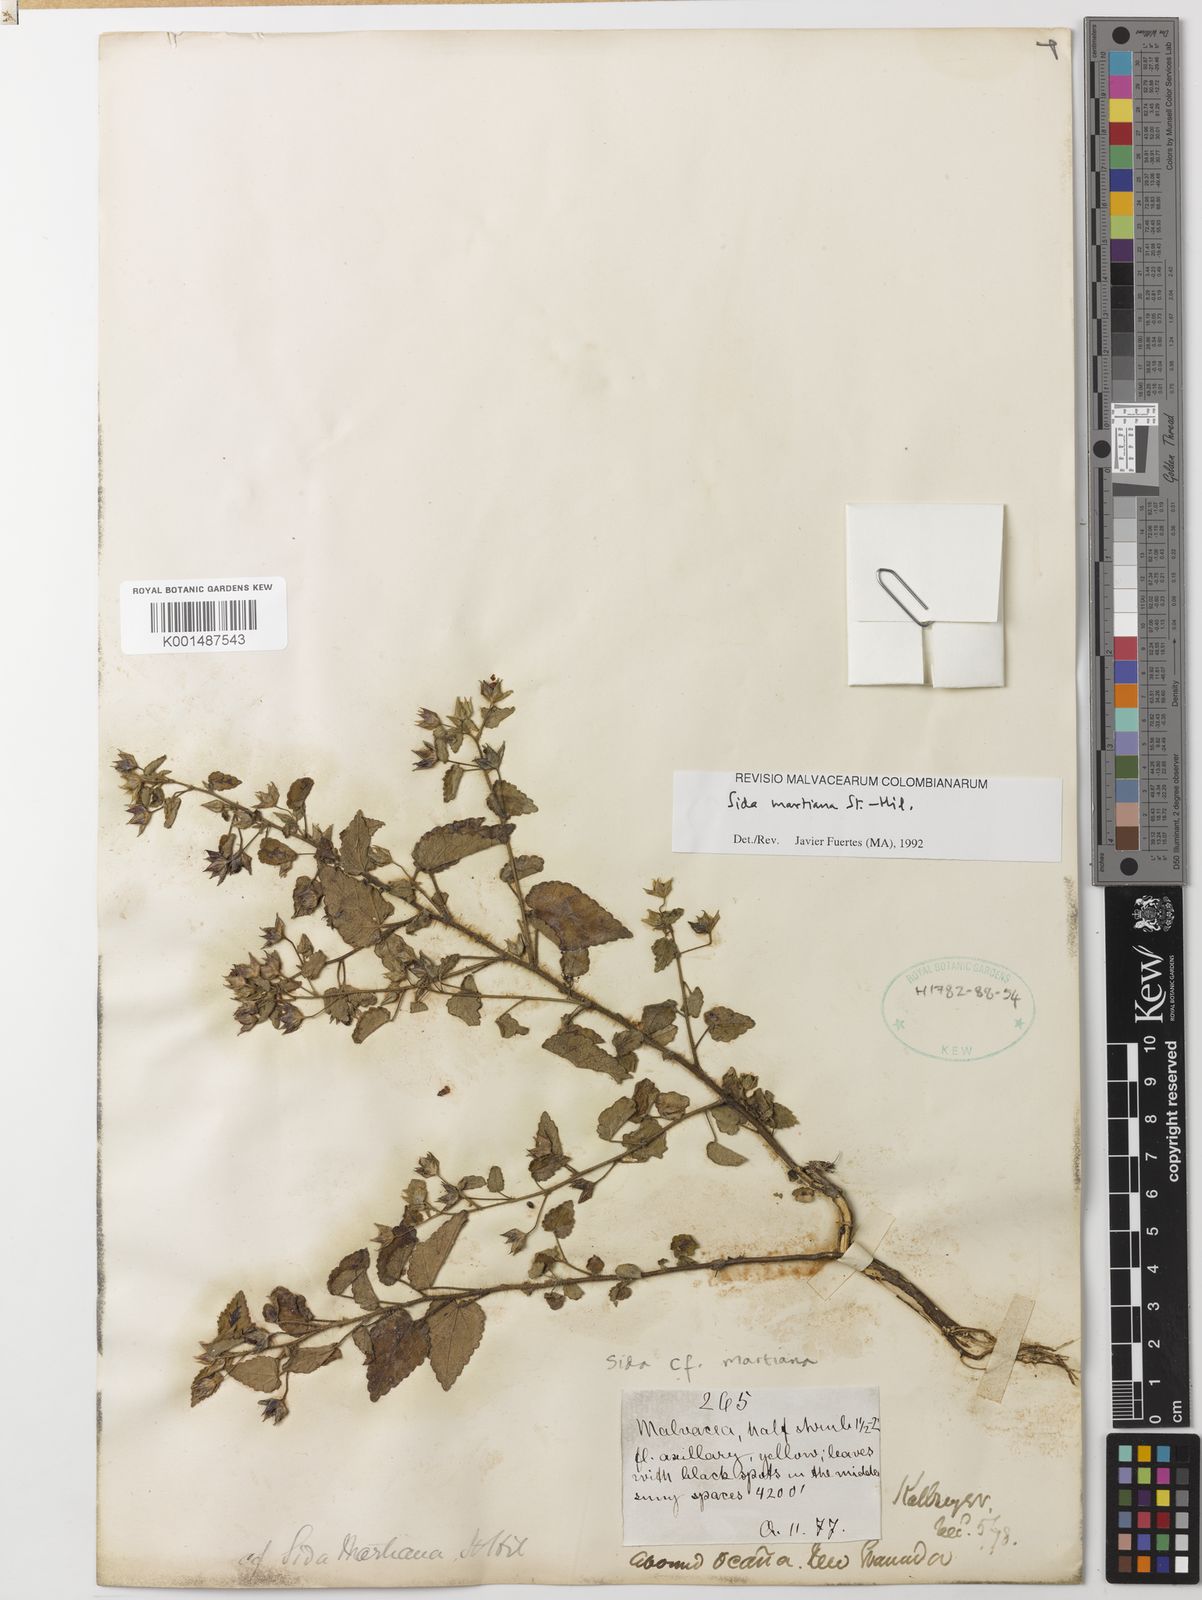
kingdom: Plantae
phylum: Tracheophyta
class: Magnoliopsida
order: Malvales
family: Malvaceae
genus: Sida
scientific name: Sida martiana
